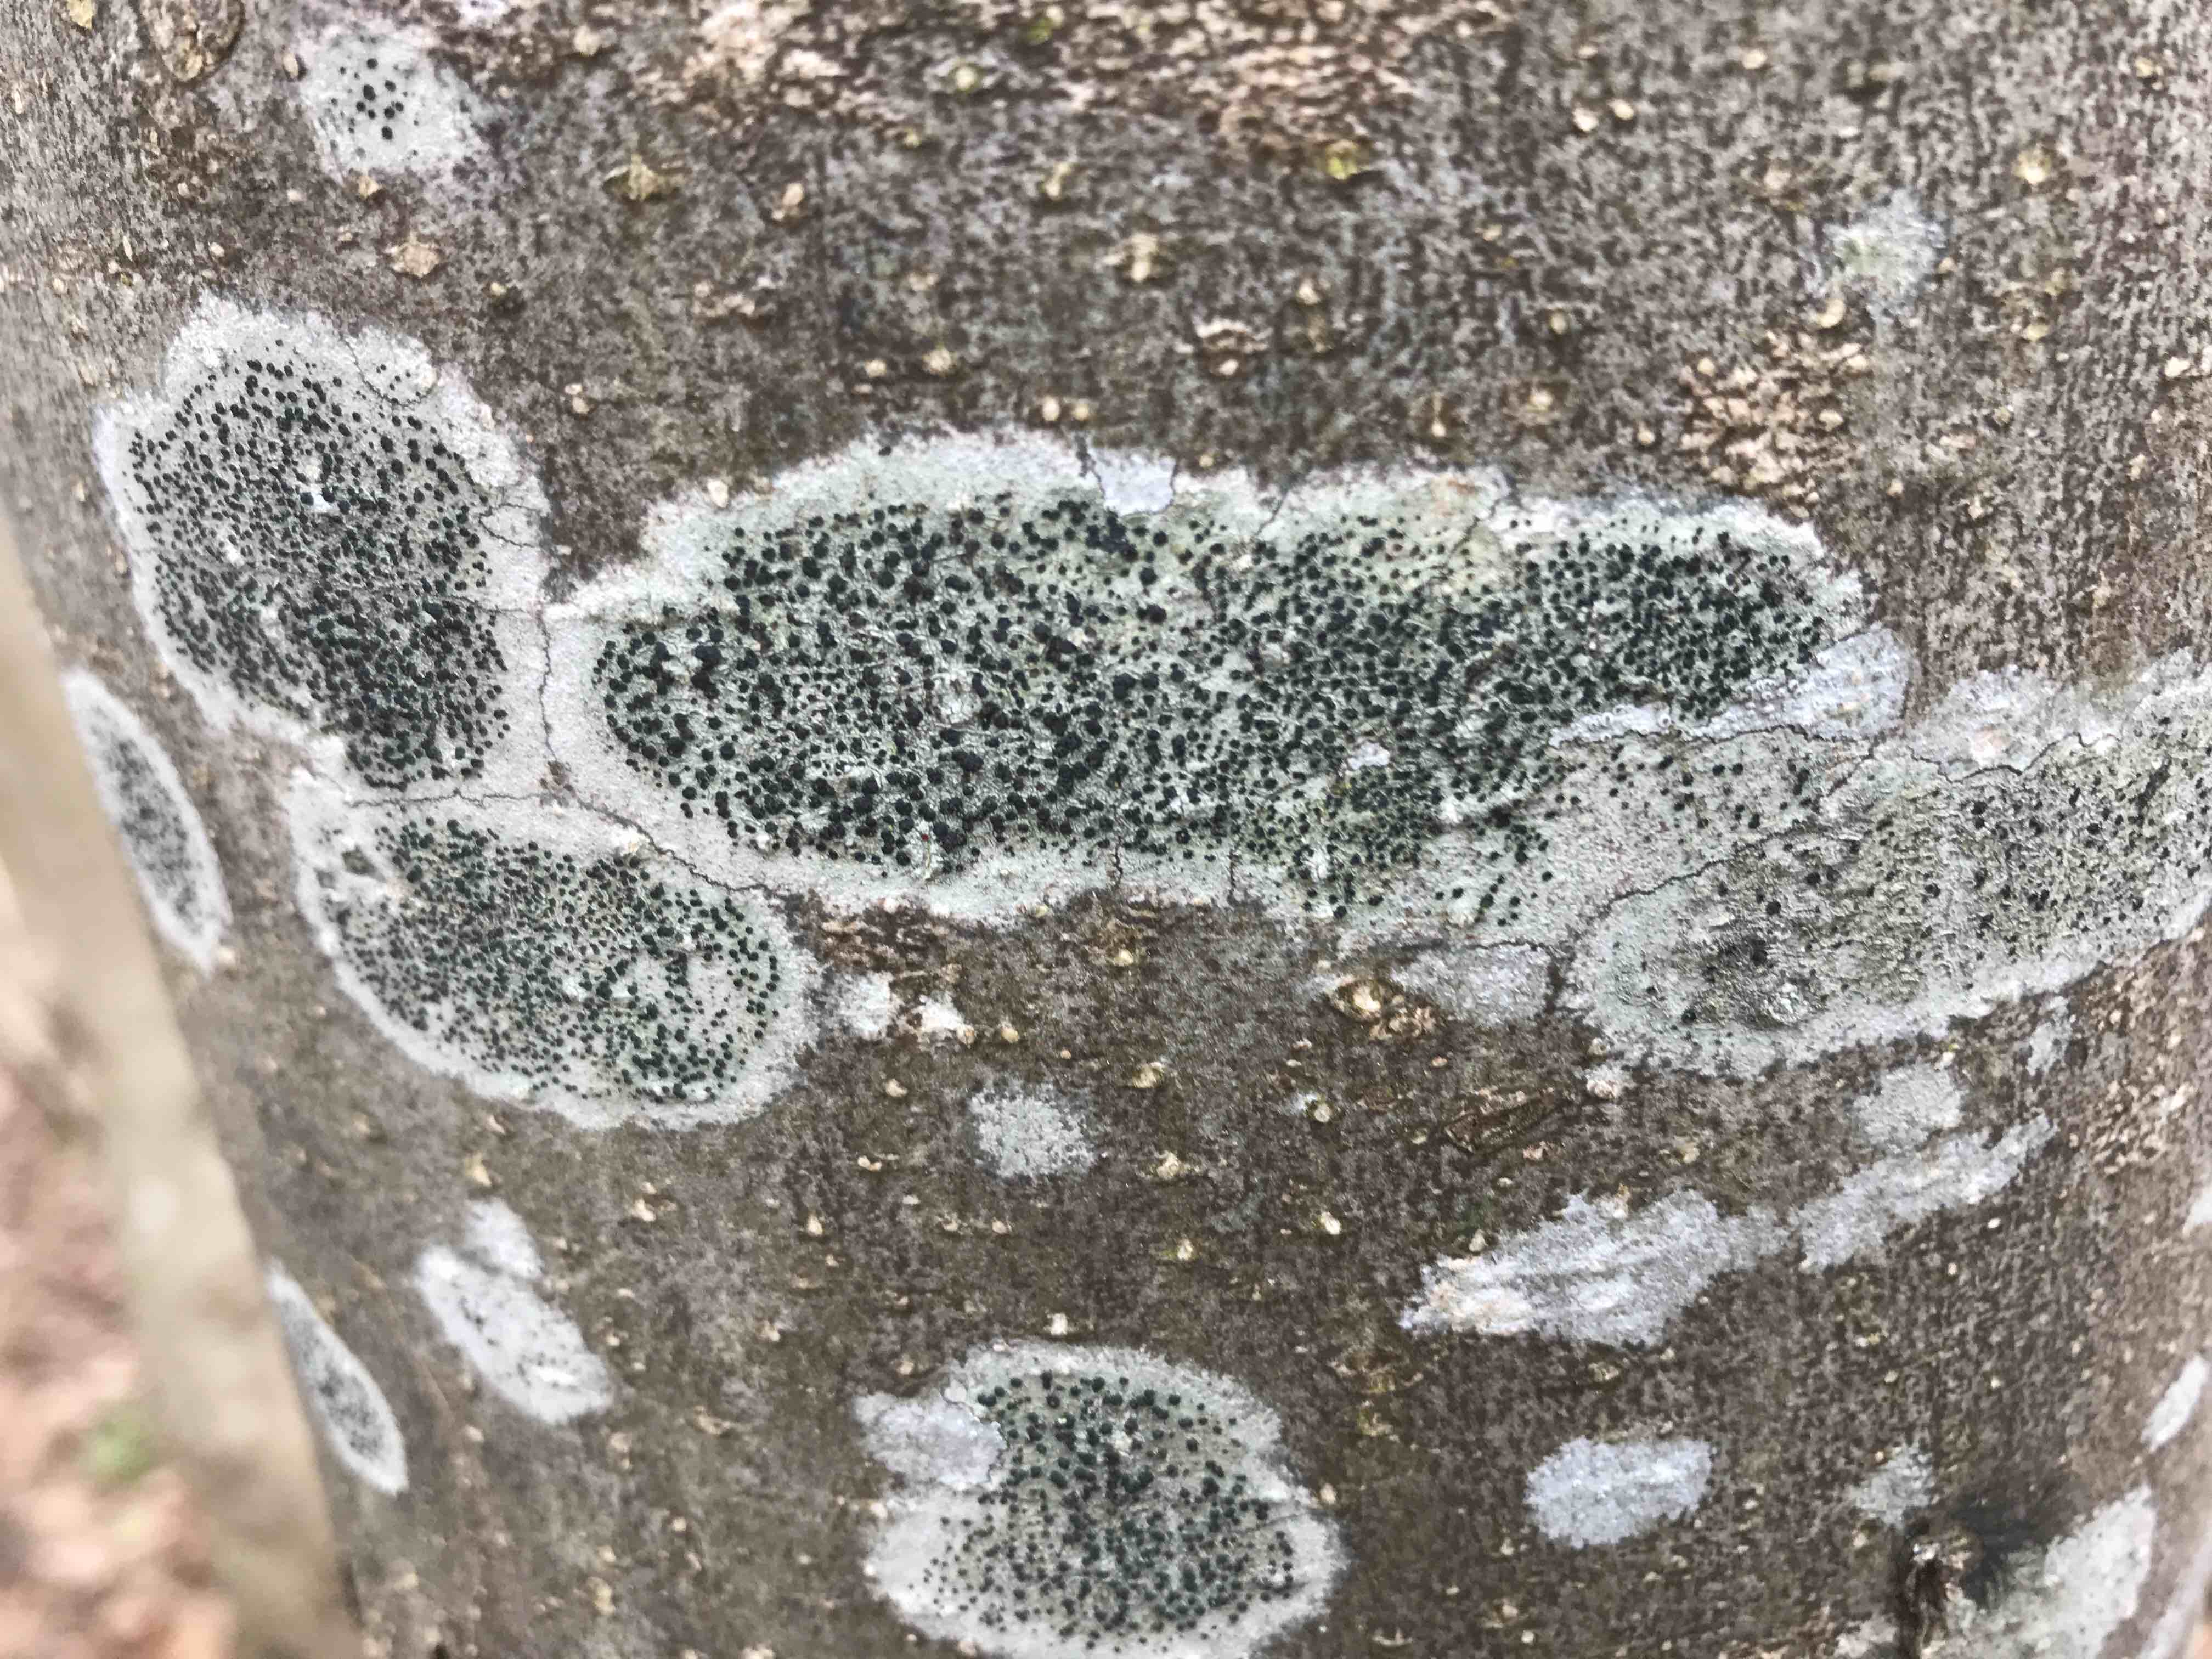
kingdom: Fungi
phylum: Ascomycota
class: Lecanoromycetes
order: Lecanorales
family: Lecanoraceae
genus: Lecidella
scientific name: Lecidella elaeochroma
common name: grågrøn skivelav
